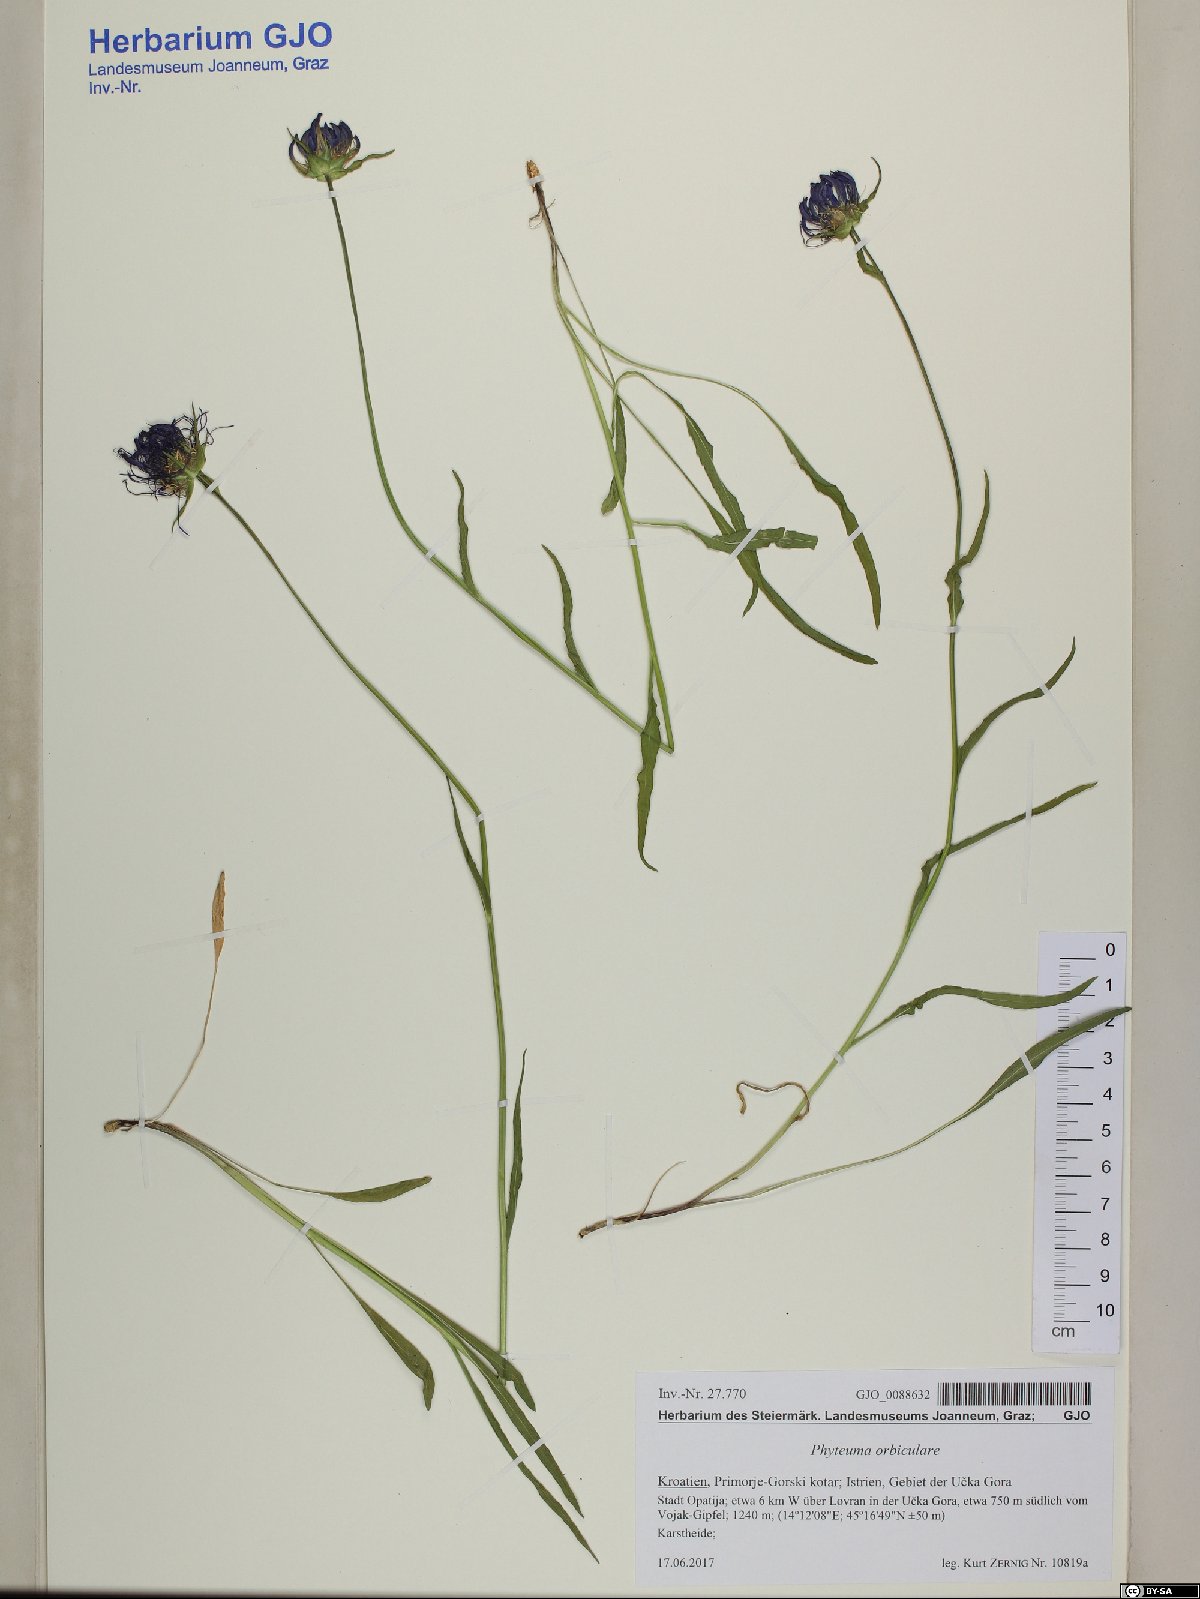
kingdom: Plantae
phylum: Tracheophyta
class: Magnoliopsida
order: Asterales
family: Campanulaceae
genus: Phyteuma
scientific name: Phyteuma orbiculare
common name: Round-headed rampion
